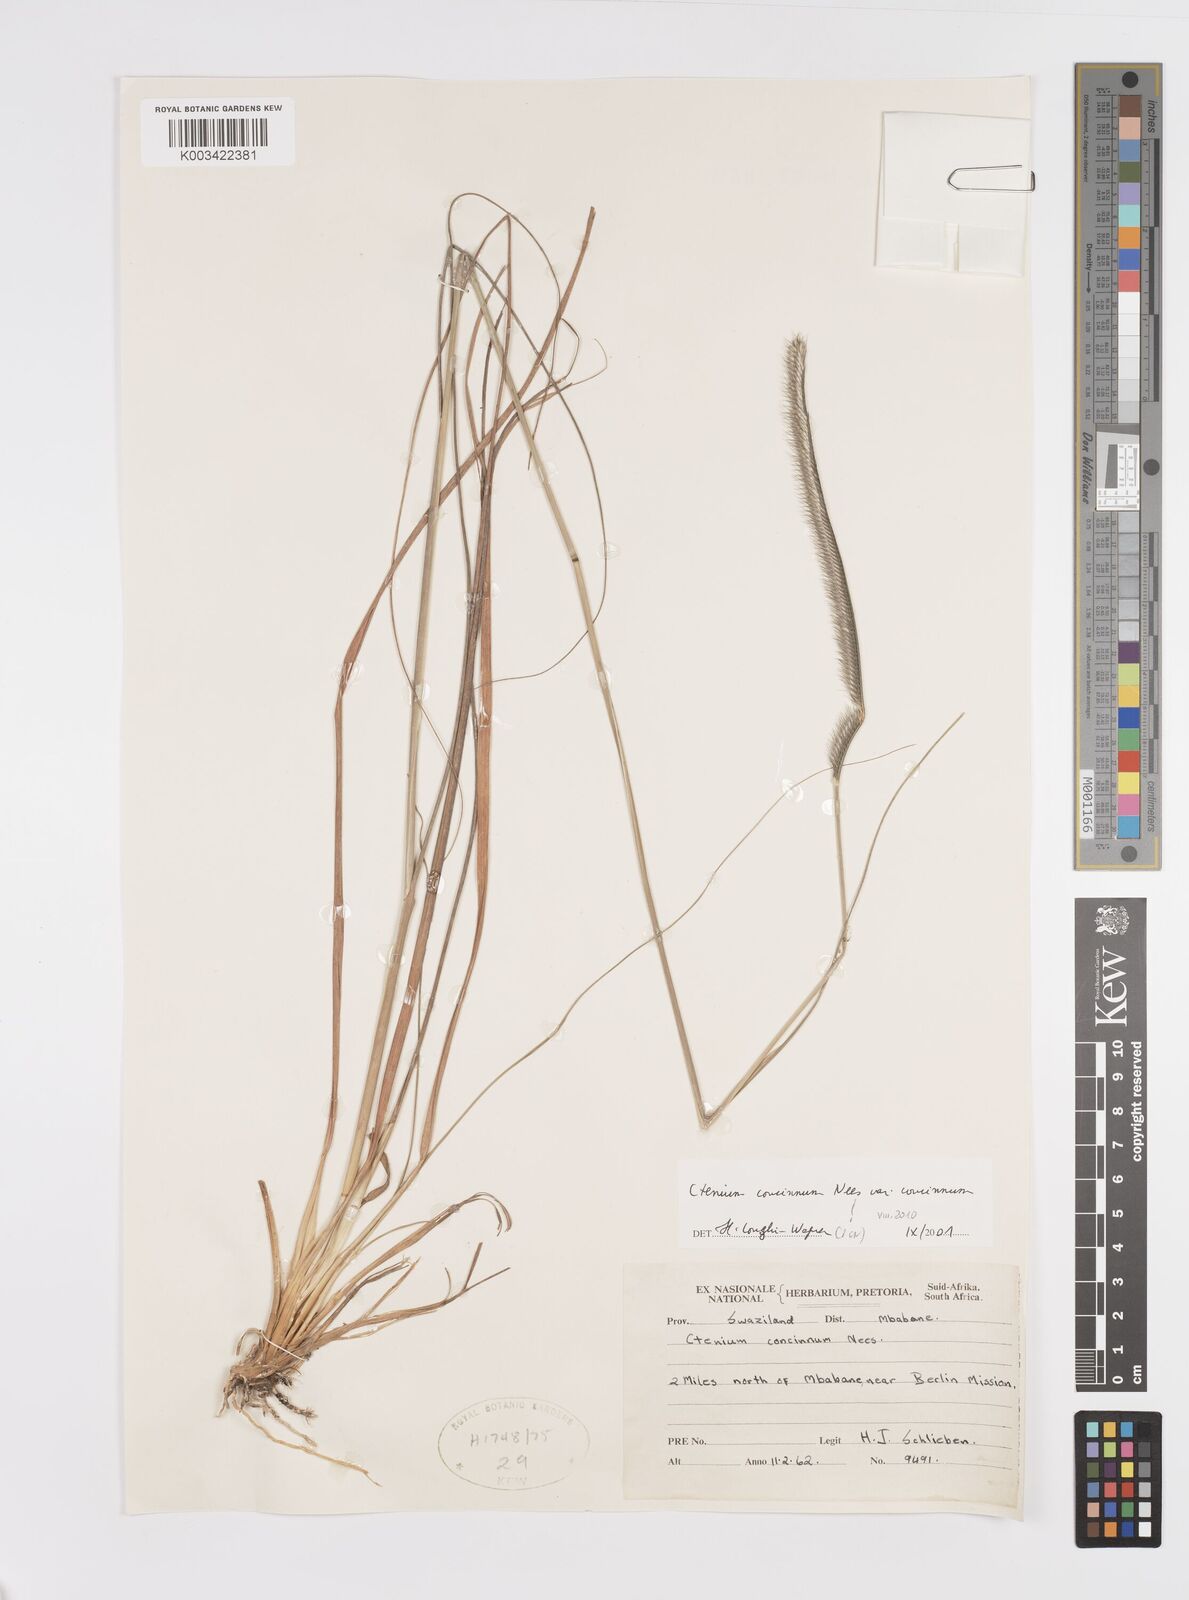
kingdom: Plantae
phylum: Tracheophyta
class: Liliopsida
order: Poales
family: Poaceae
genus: Ctenium
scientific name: Ctenium concinnum
